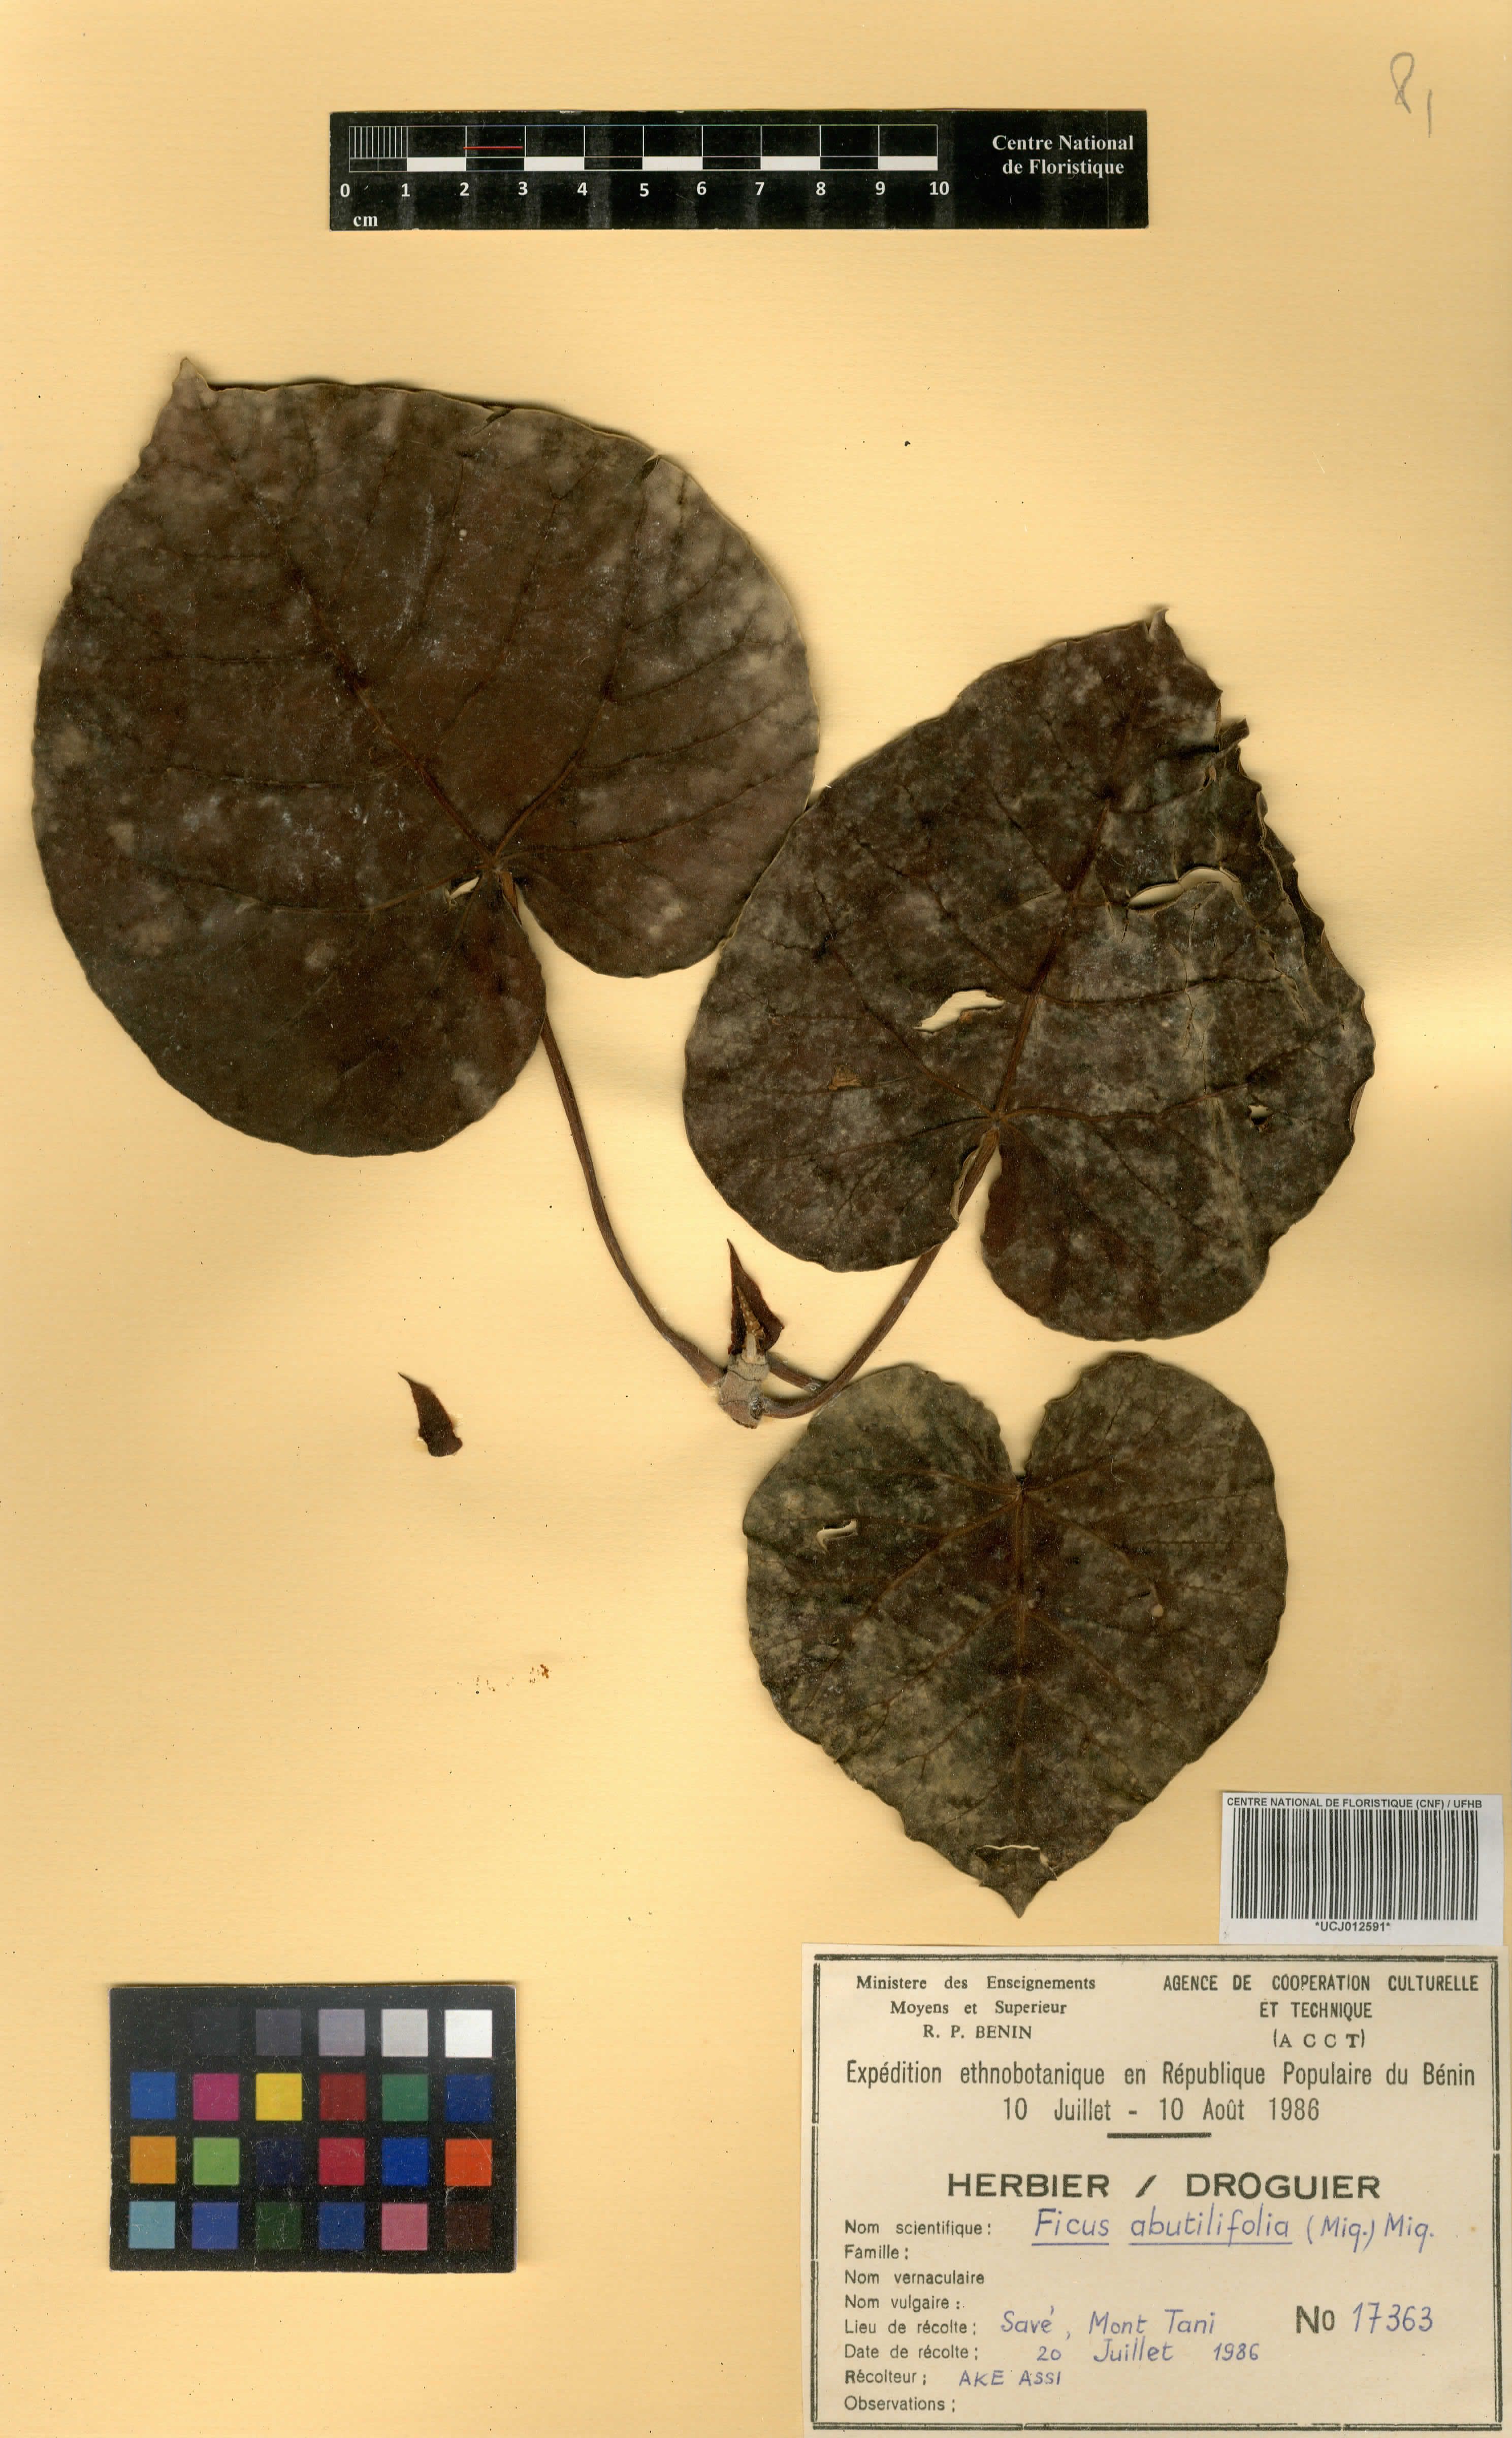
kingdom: Plantae
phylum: Tracheophyta
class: Magnoliopsida
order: Rosales
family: Moraceae
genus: Ficus
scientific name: Ficus abutilifolia
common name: Large-leaved rock fig
